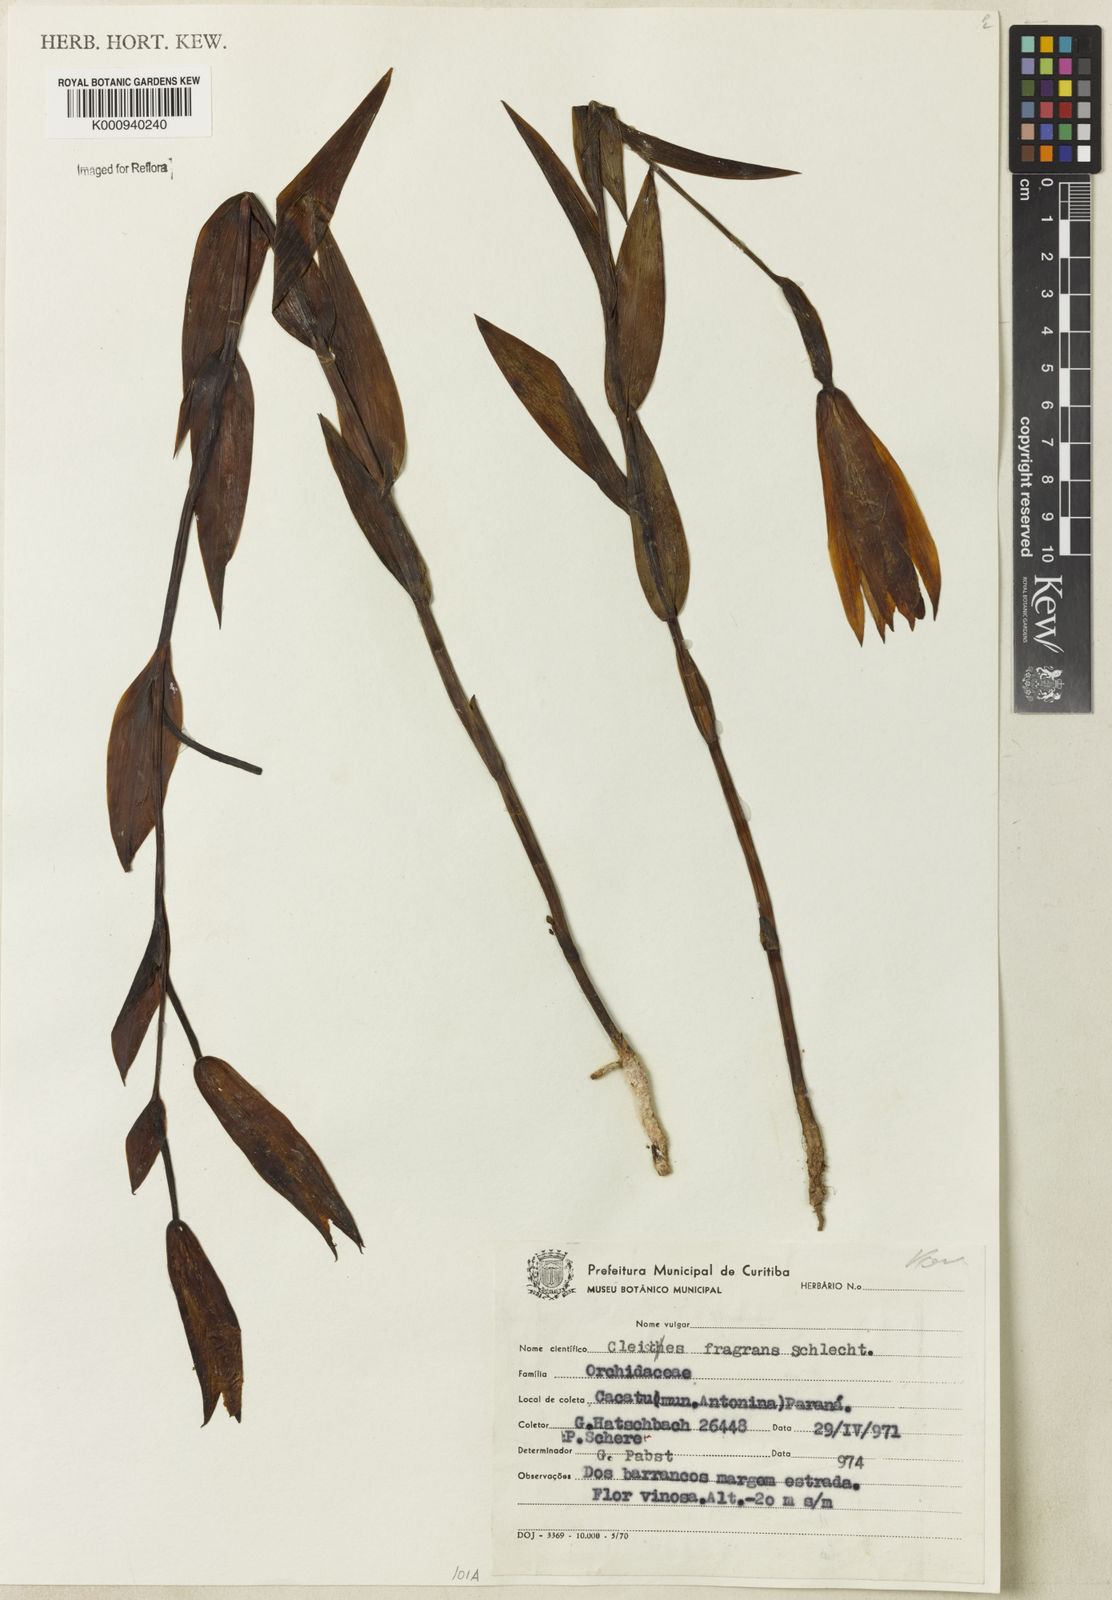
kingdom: Plantae
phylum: Tracheophyta
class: Liliopsida
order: Asparagales
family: Orchidaceae
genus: Cleistes
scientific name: Cleistes fragrans
